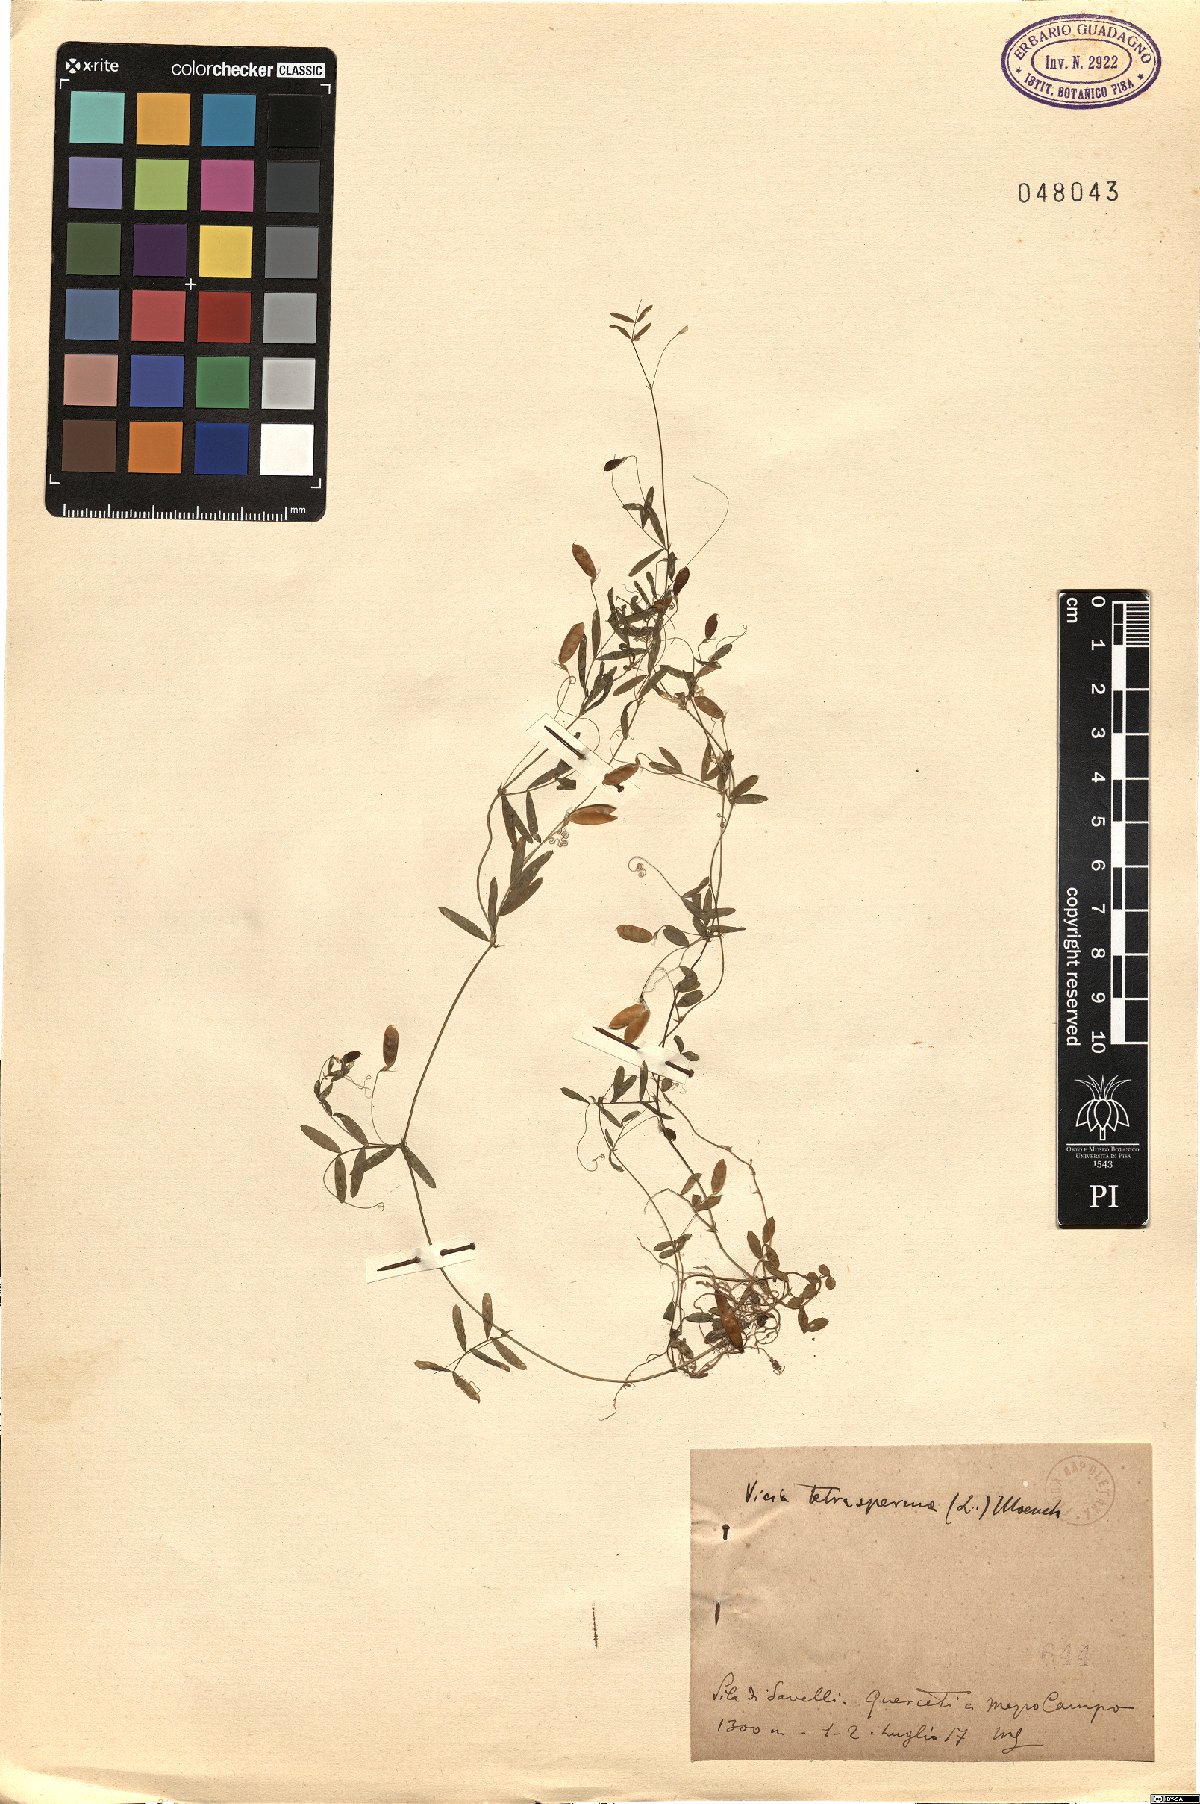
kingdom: Plantae
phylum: Tracheophyta
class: Magnoliopsida
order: Fabales
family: Fabaceae
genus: Vicia
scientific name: Vicia tetrasperma
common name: Smooth tare
